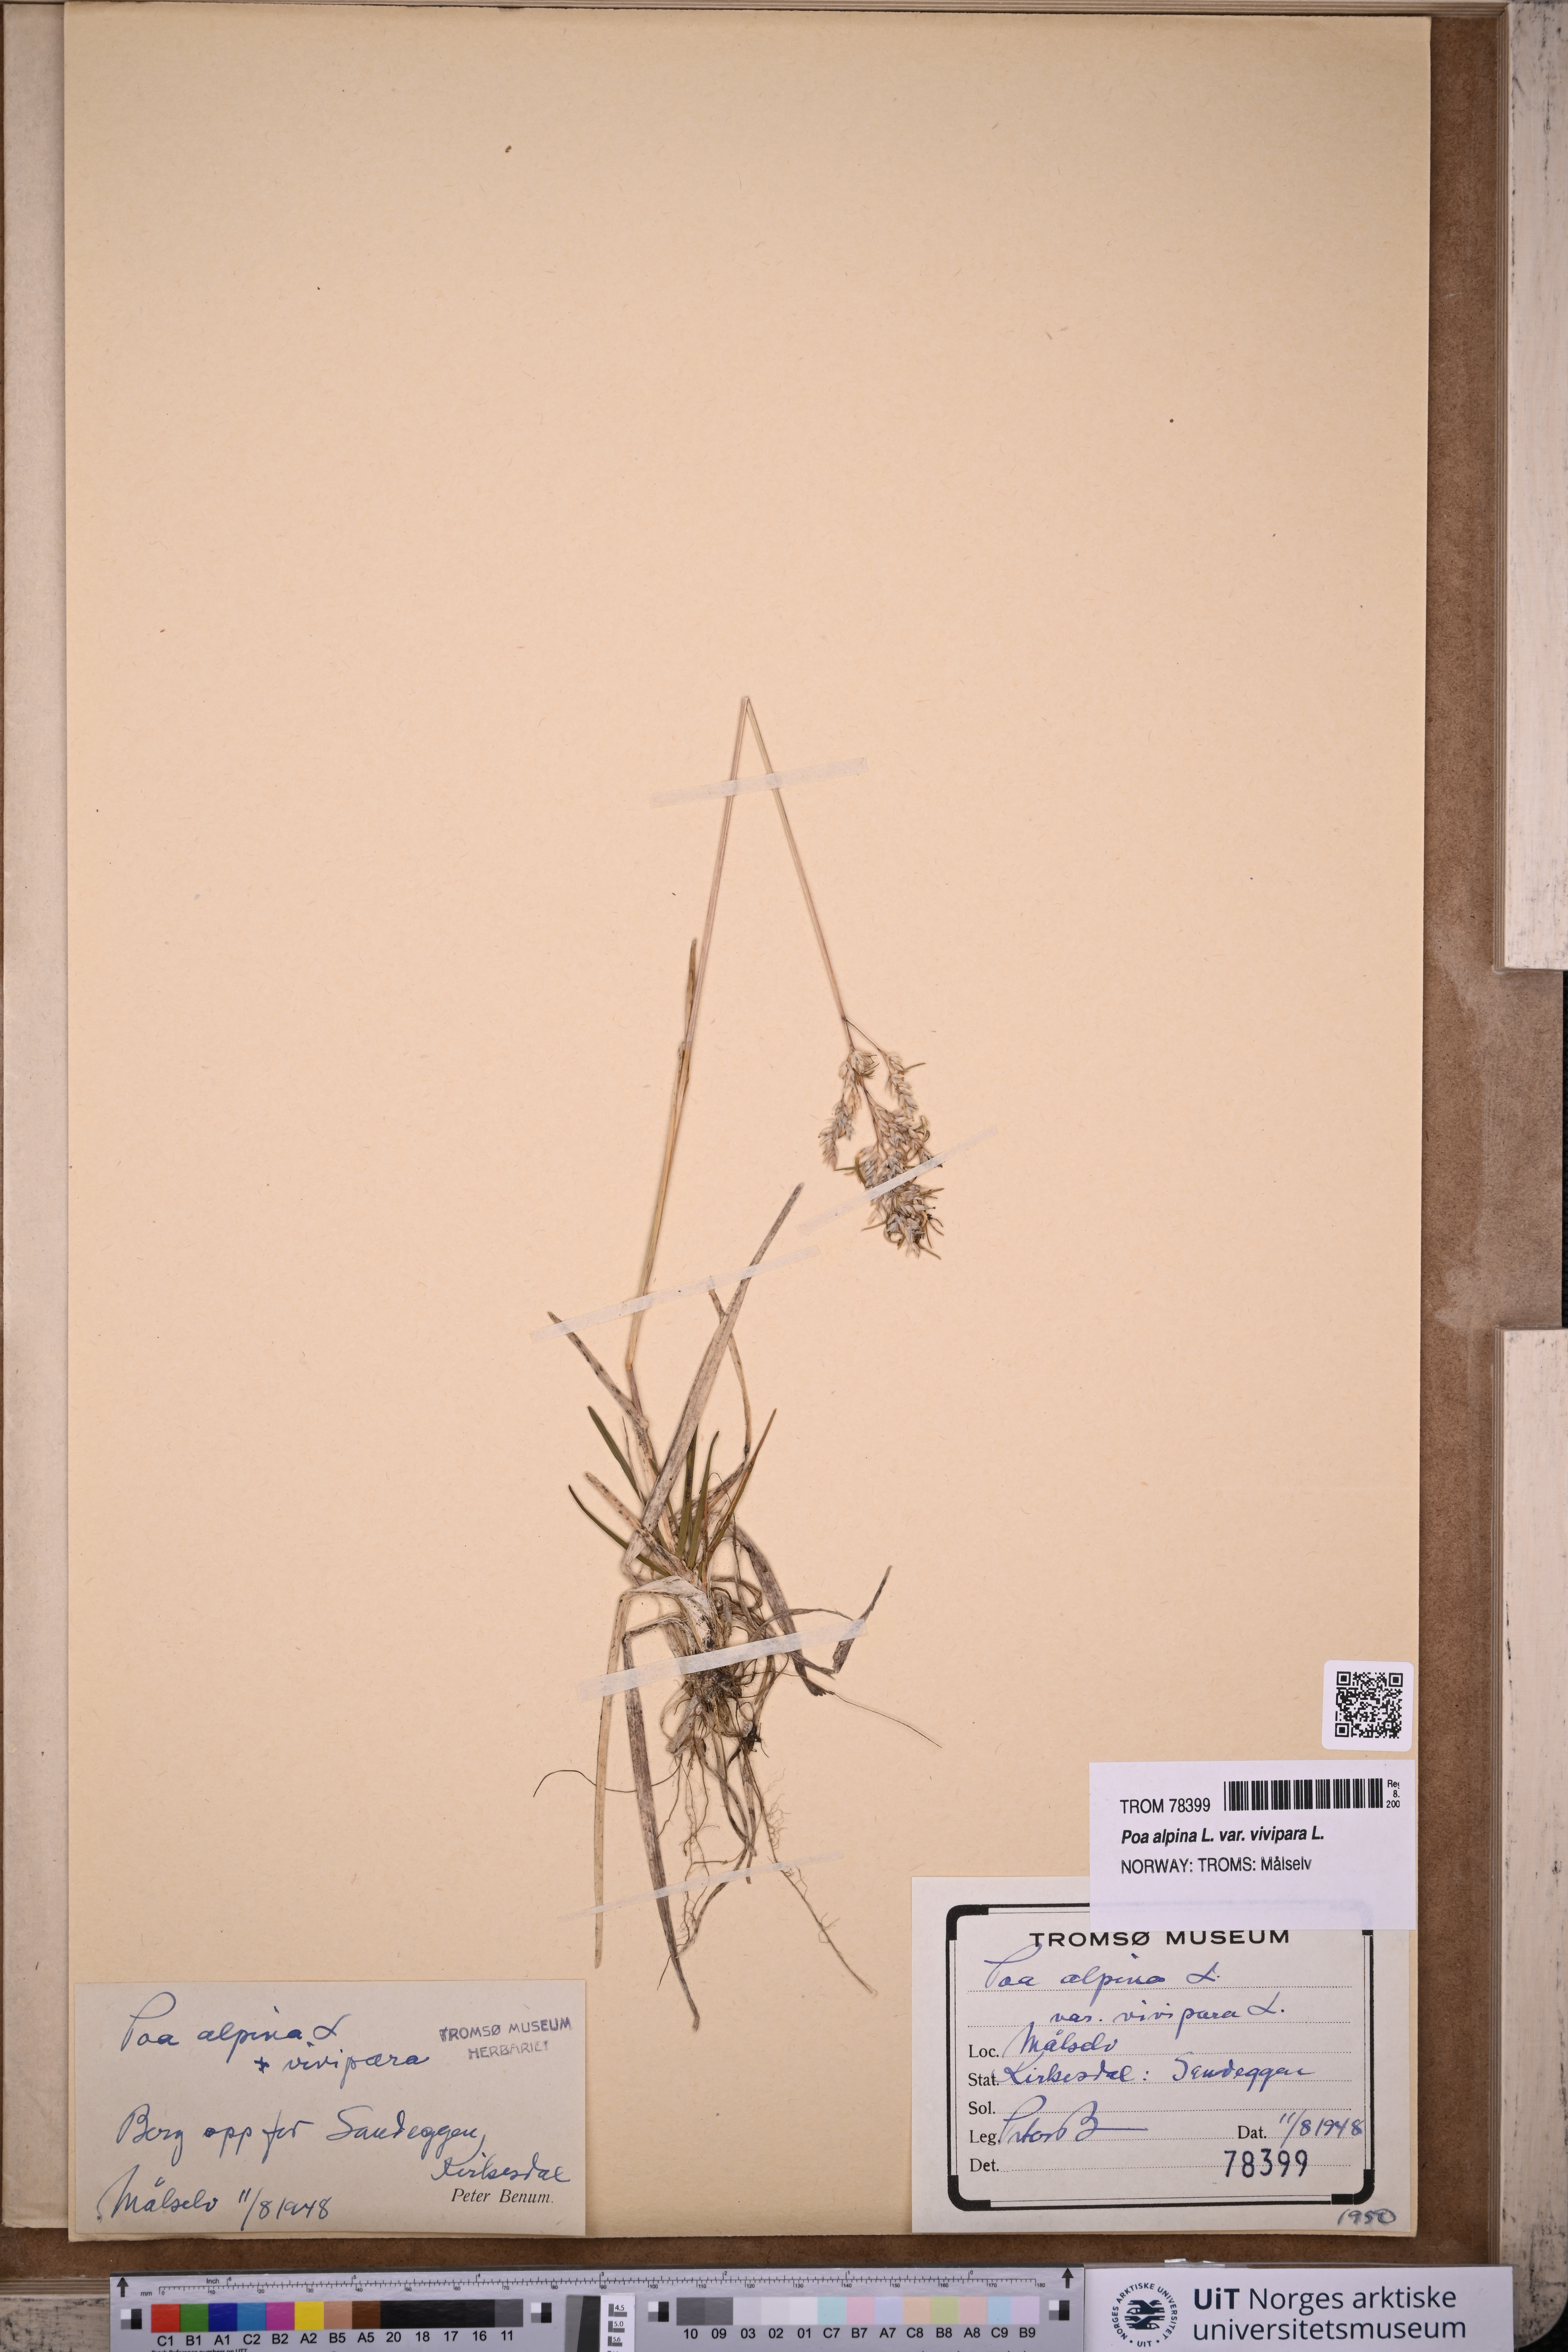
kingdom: Plantae
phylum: Tracheophyta
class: Liliopsida
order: Poales
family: Poaceae
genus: Poa
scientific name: Poa alpina
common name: Alpine bluegrass
